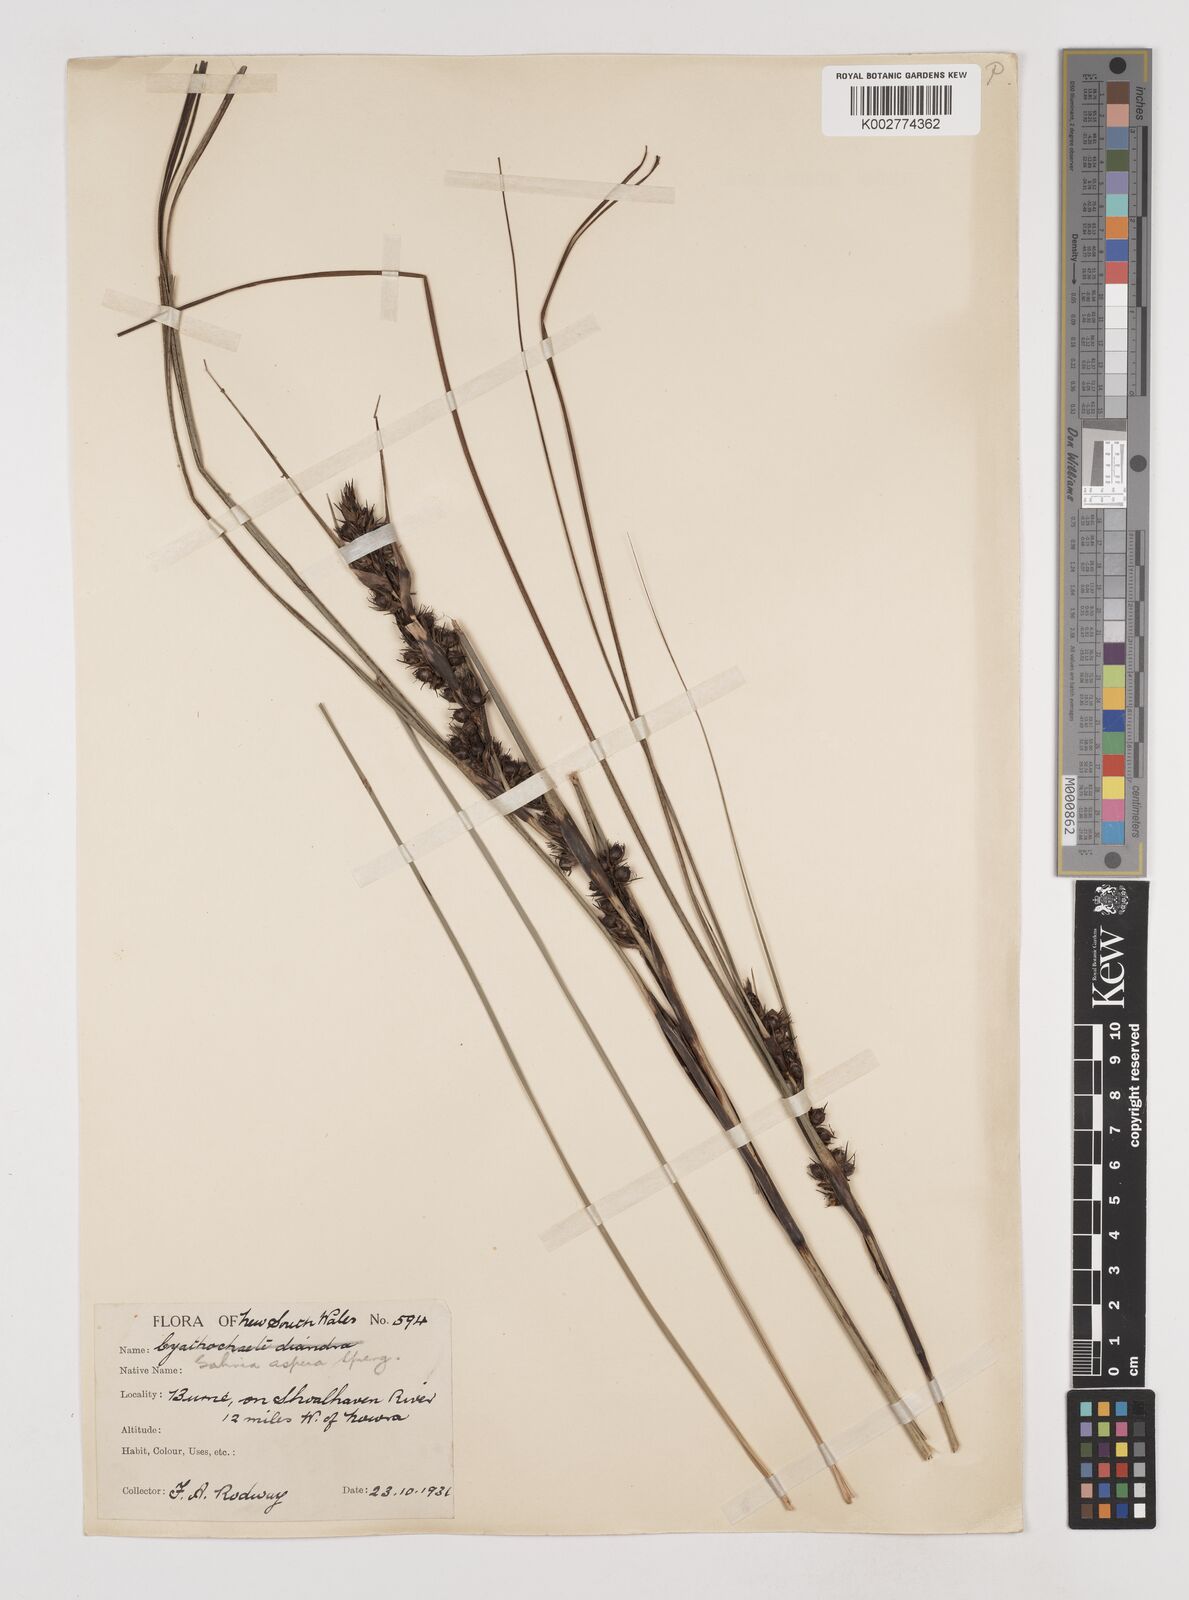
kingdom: Plantae
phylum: Tracheophyta
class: Liliopsida
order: Poales
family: Cyperaceae
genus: Gahnia
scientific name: Gahnia aspera
